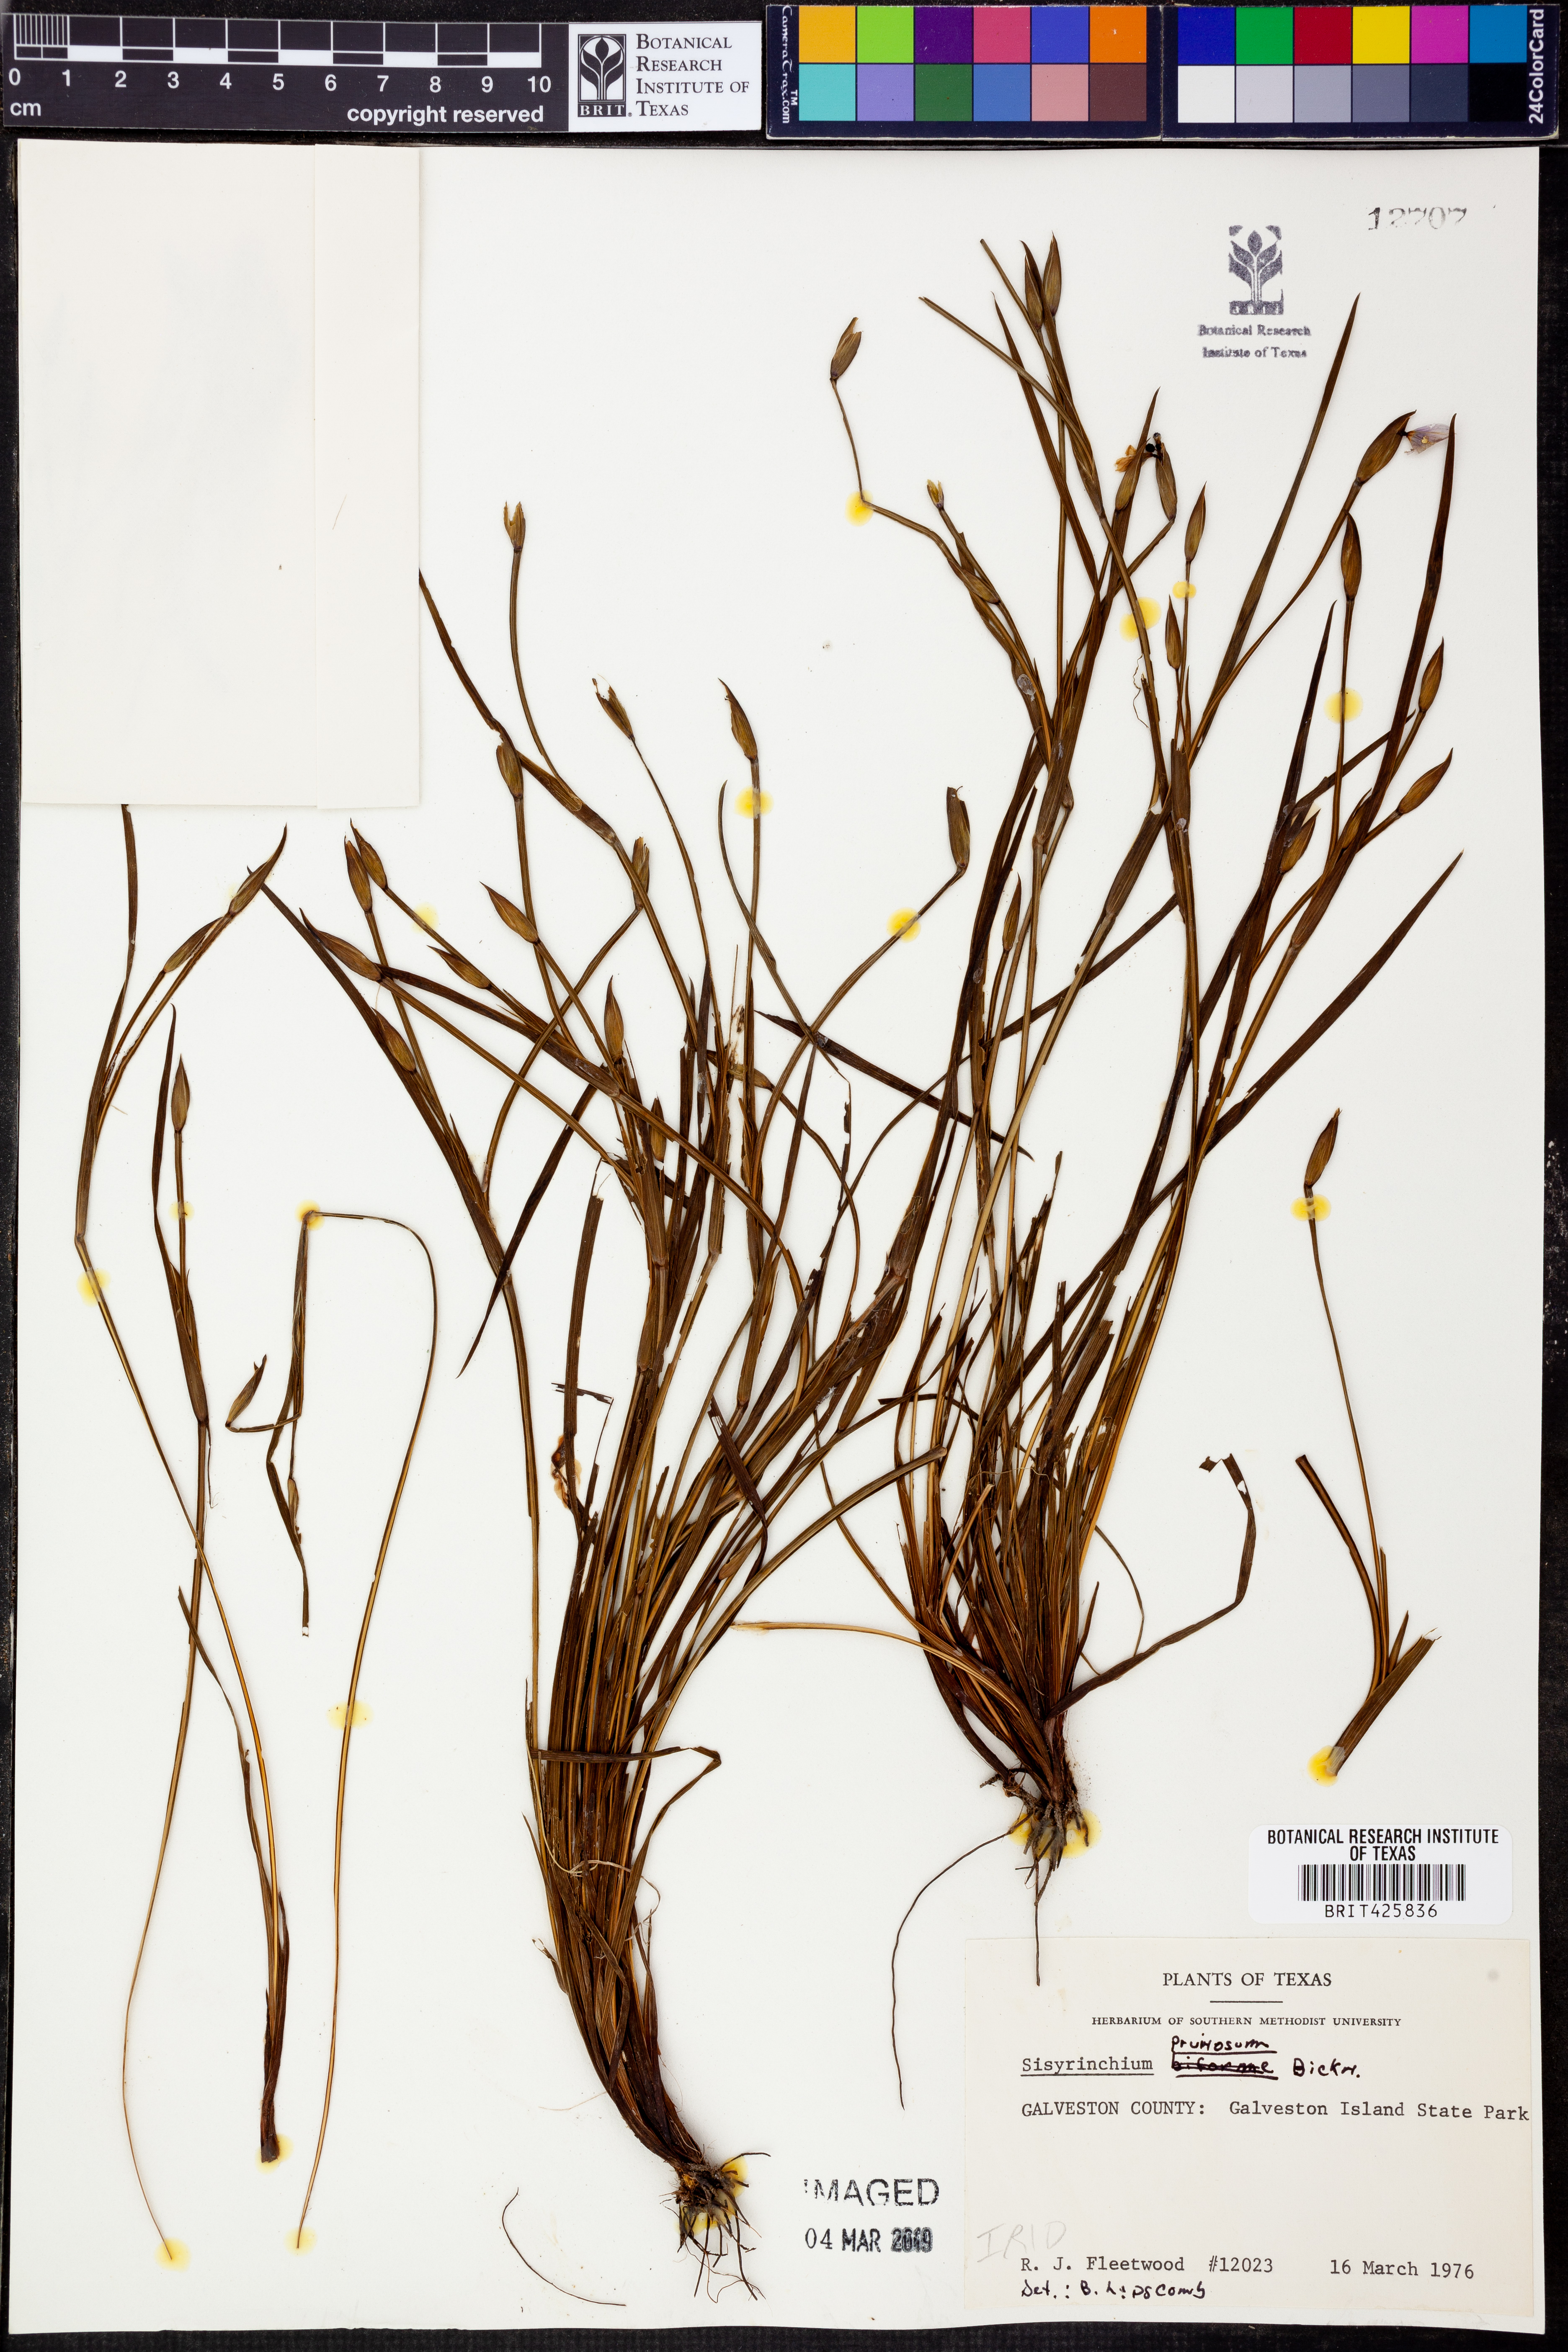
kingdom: Plantae
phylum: Tracheophyta
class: Liliopsida
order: Asparagales
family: Iridaceae
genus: Sisyrinchium
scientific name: Sisyrinchium pruinosum
